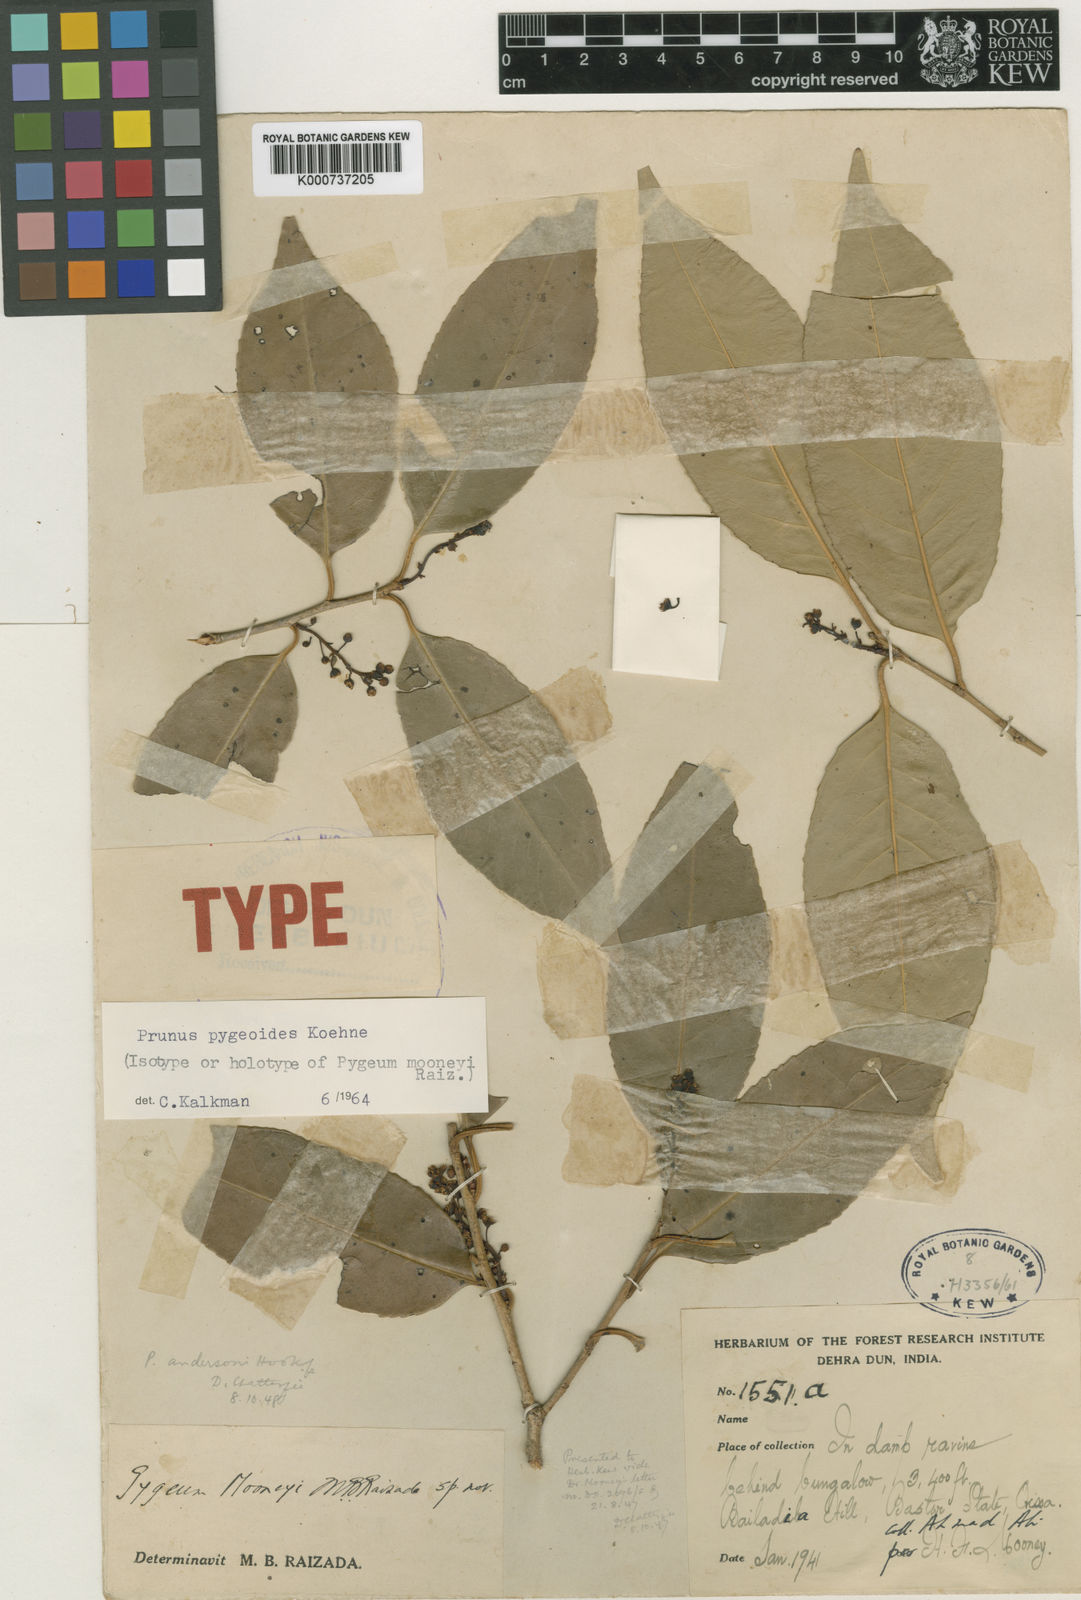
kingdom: Plantae
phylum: Tracheophyta
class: Magnoliopsida
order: Rosales
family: Rosaceae
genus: Prunus
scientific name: Prunus pygeoides
